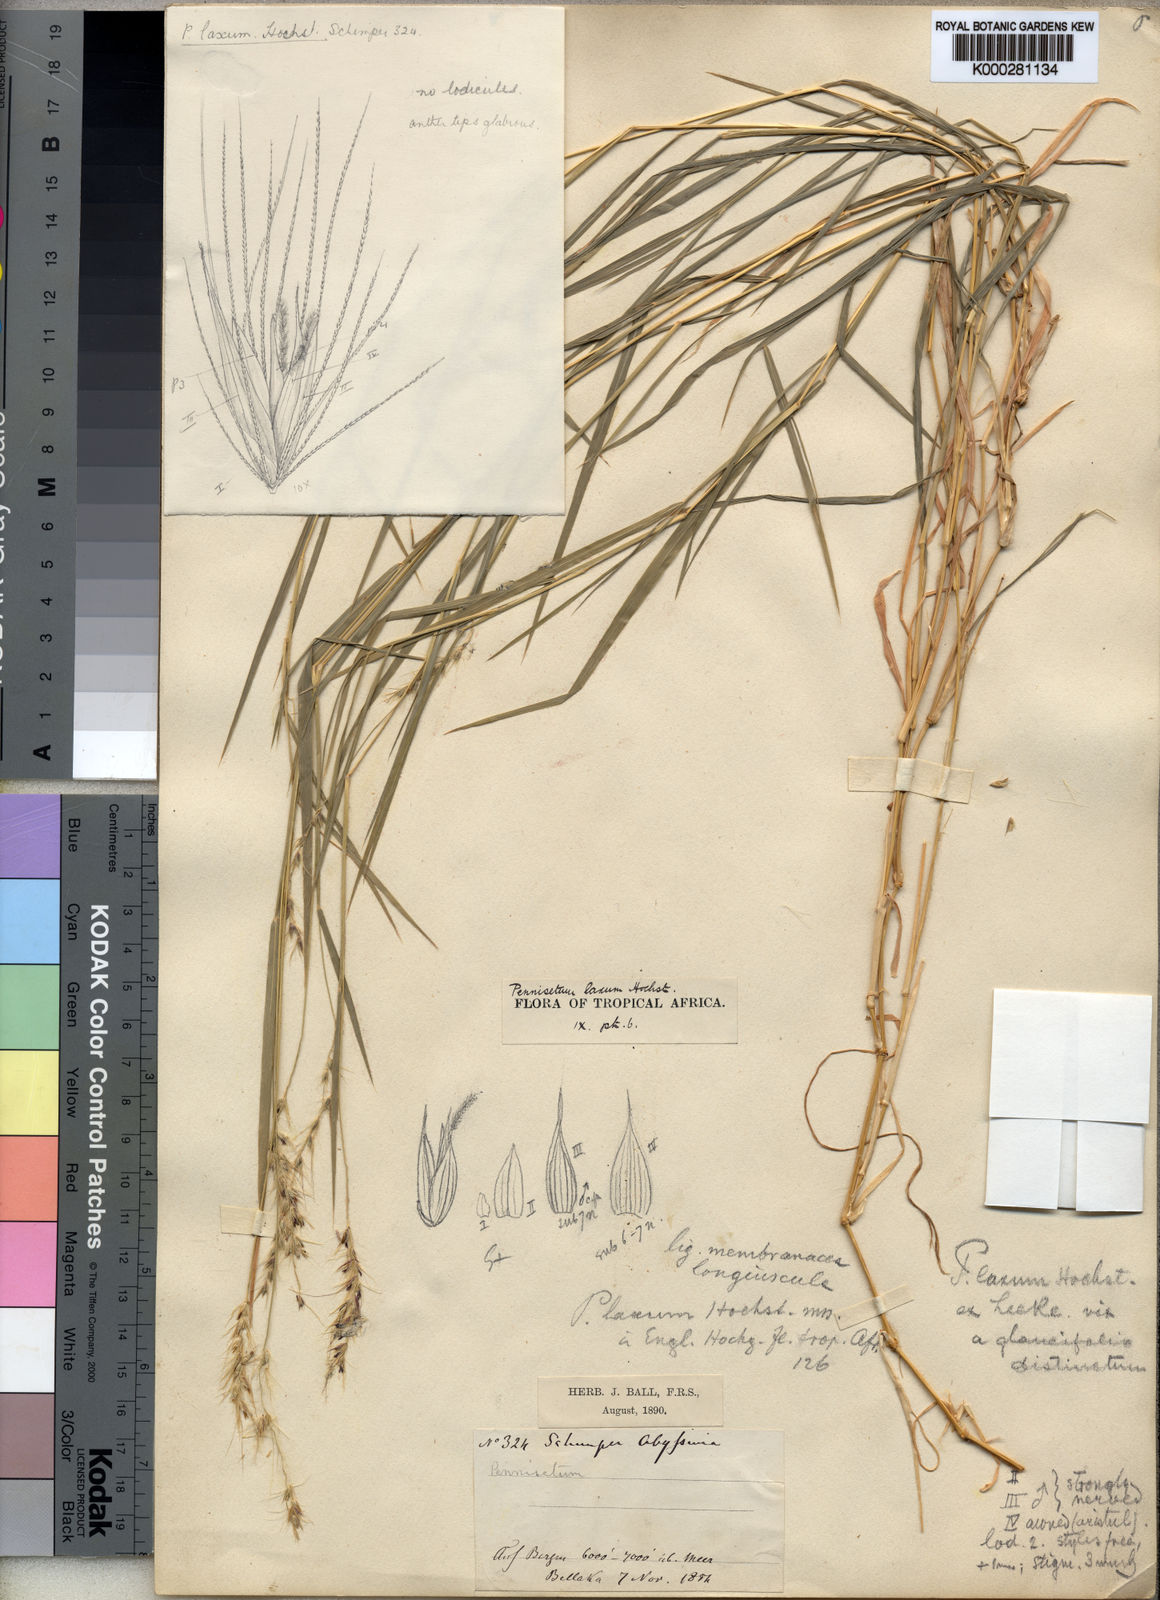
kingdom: Plantae
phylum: Tracheophyta
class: Liliopsida
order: Poales
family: Poaceae
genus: Cenchrus
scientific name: Cenchrus Pennisetum spec
